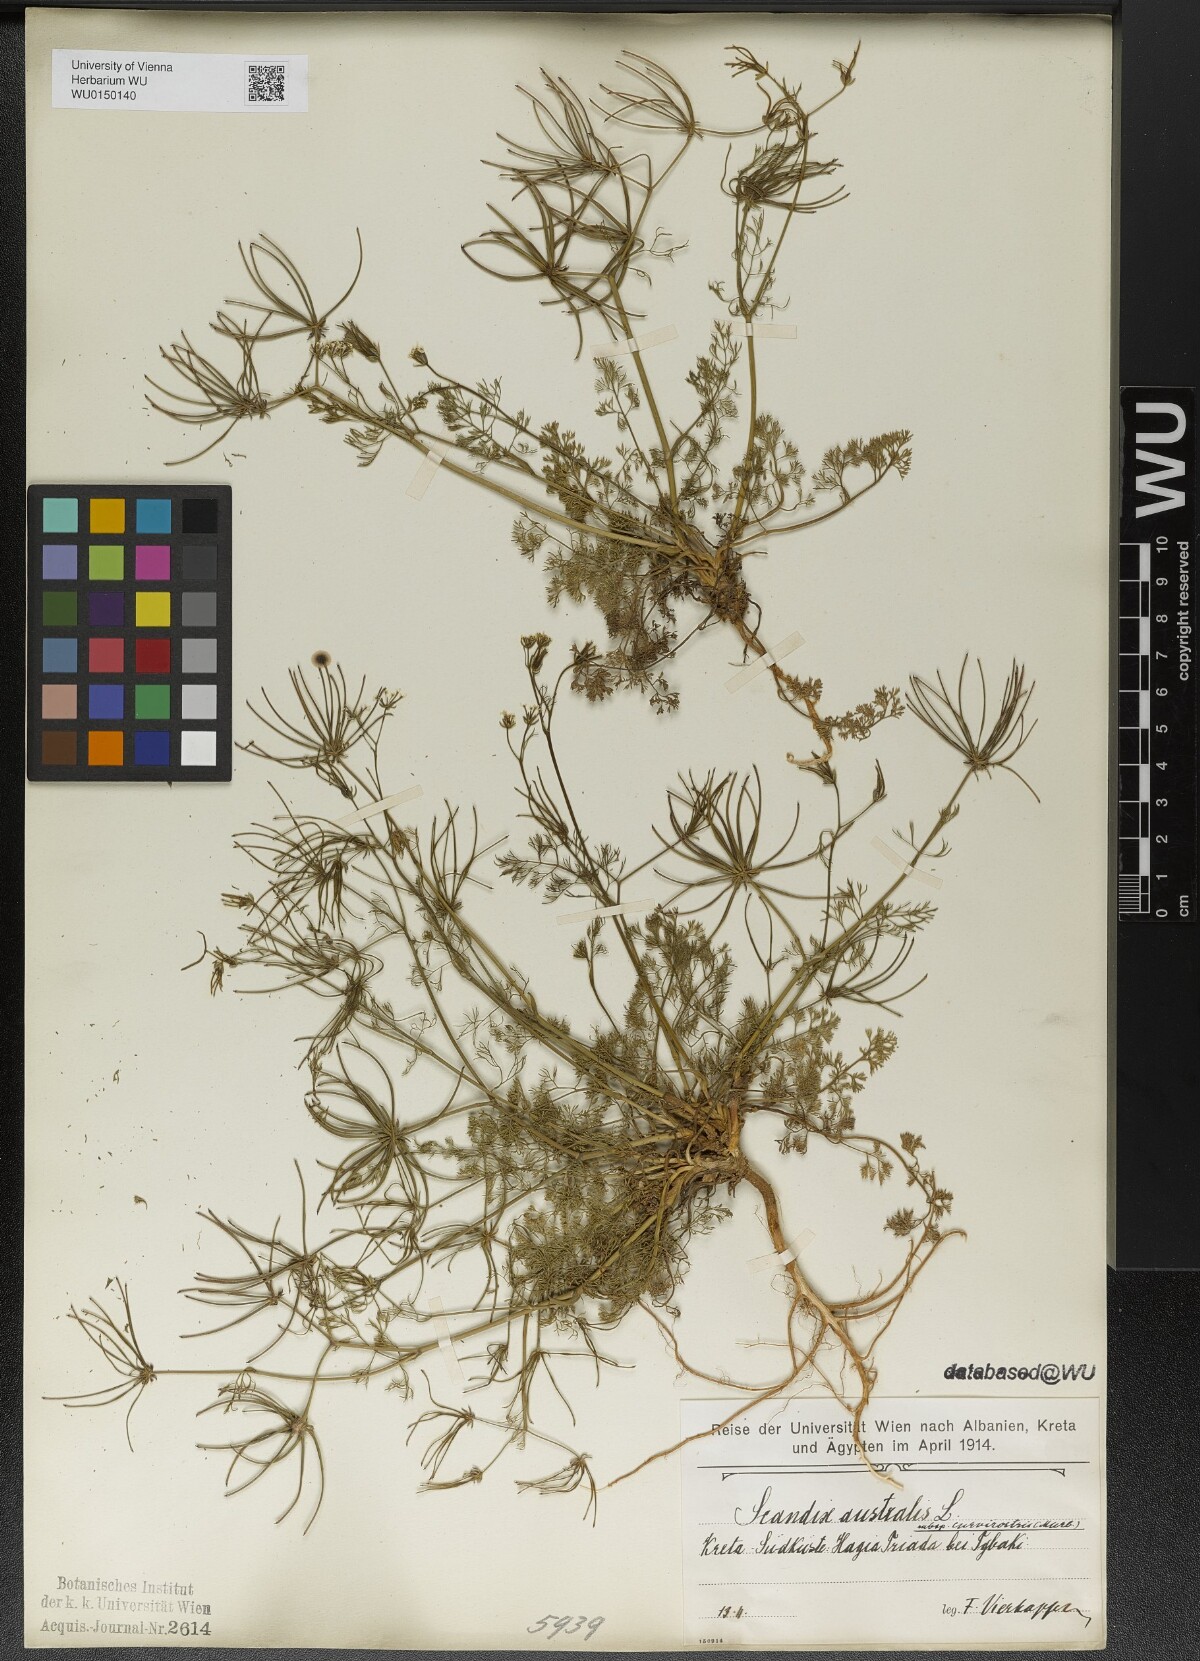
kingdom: Plantae
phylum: Tracheophyta
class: Magnoliopsida
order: Apiales
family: Apiaceae
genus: Scandix
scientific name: Scandix australis
